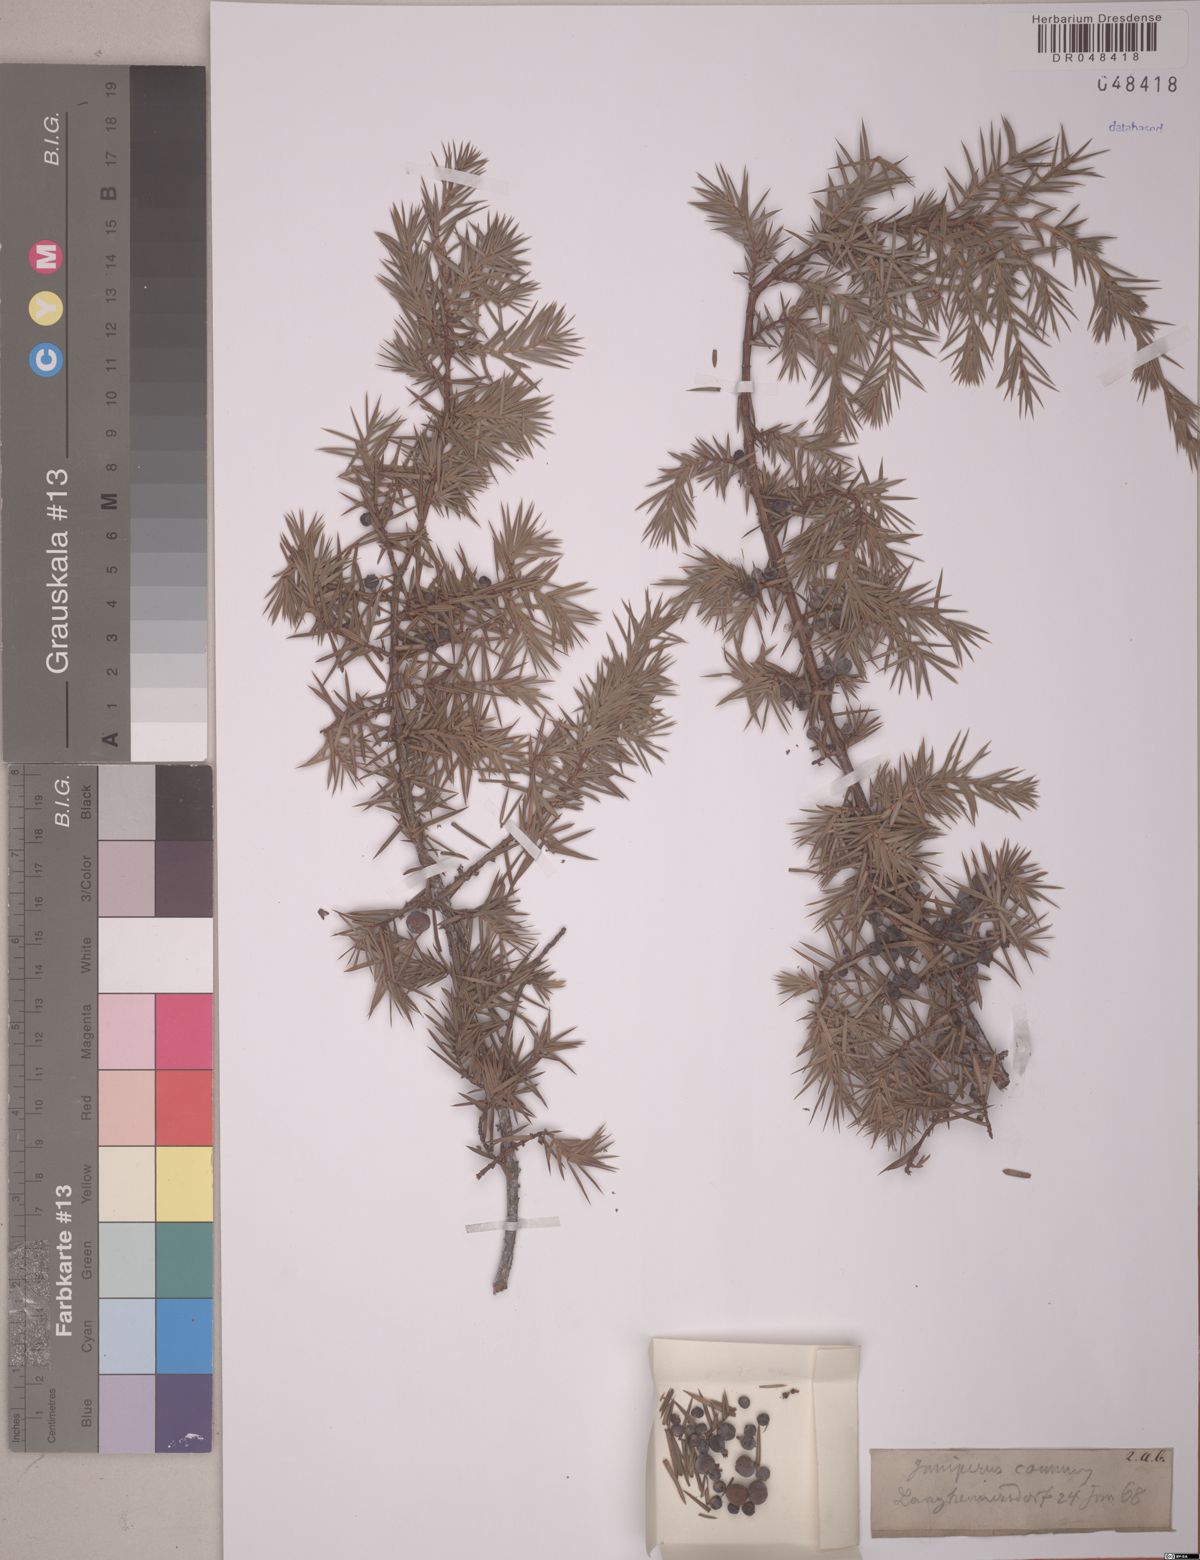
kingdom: Plantae
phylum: Tracheophyta
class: Pinopsida
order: Pinales
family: Cupressaceae
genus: Juniperus
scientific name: Juniperus communis
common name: Common juniper
